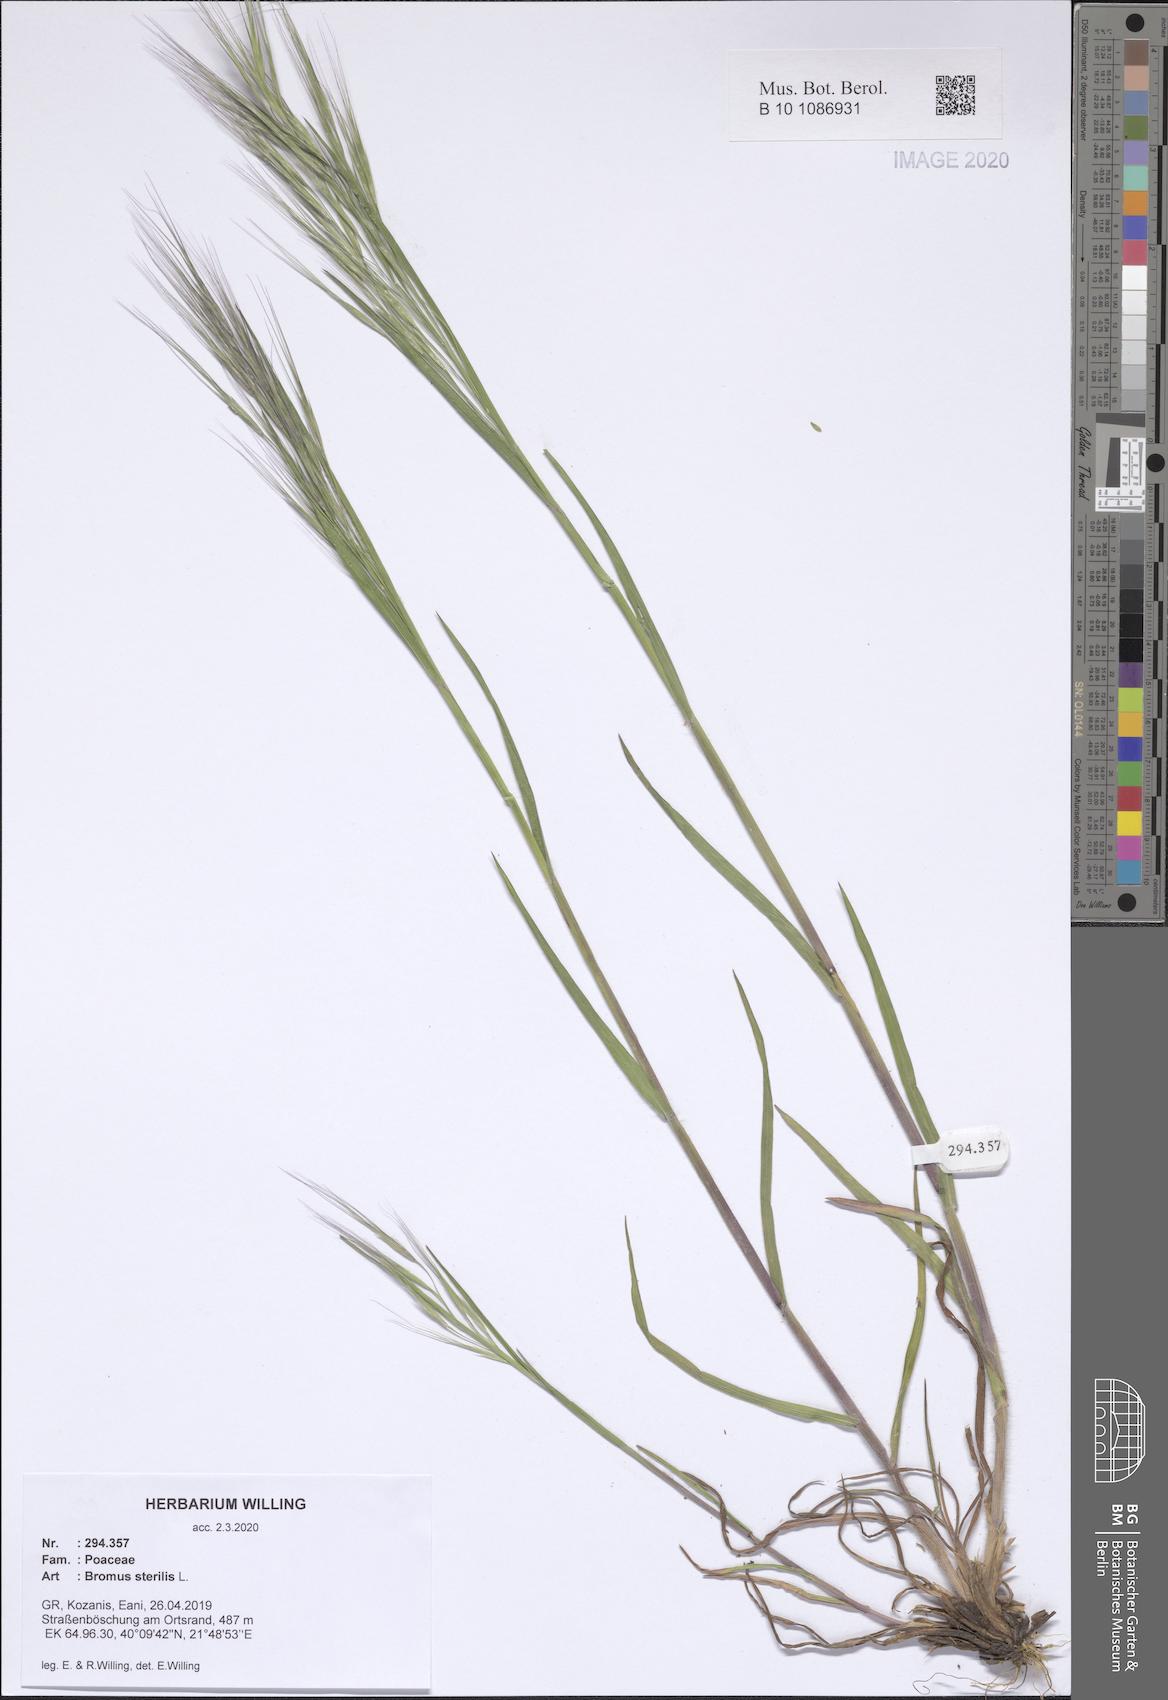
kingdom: Plantae
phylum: Tracheophyta
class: Liliopsida
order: Poales
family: Poaceae
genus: Bromus
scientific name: Bromus sterilis
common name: Poverty brome
